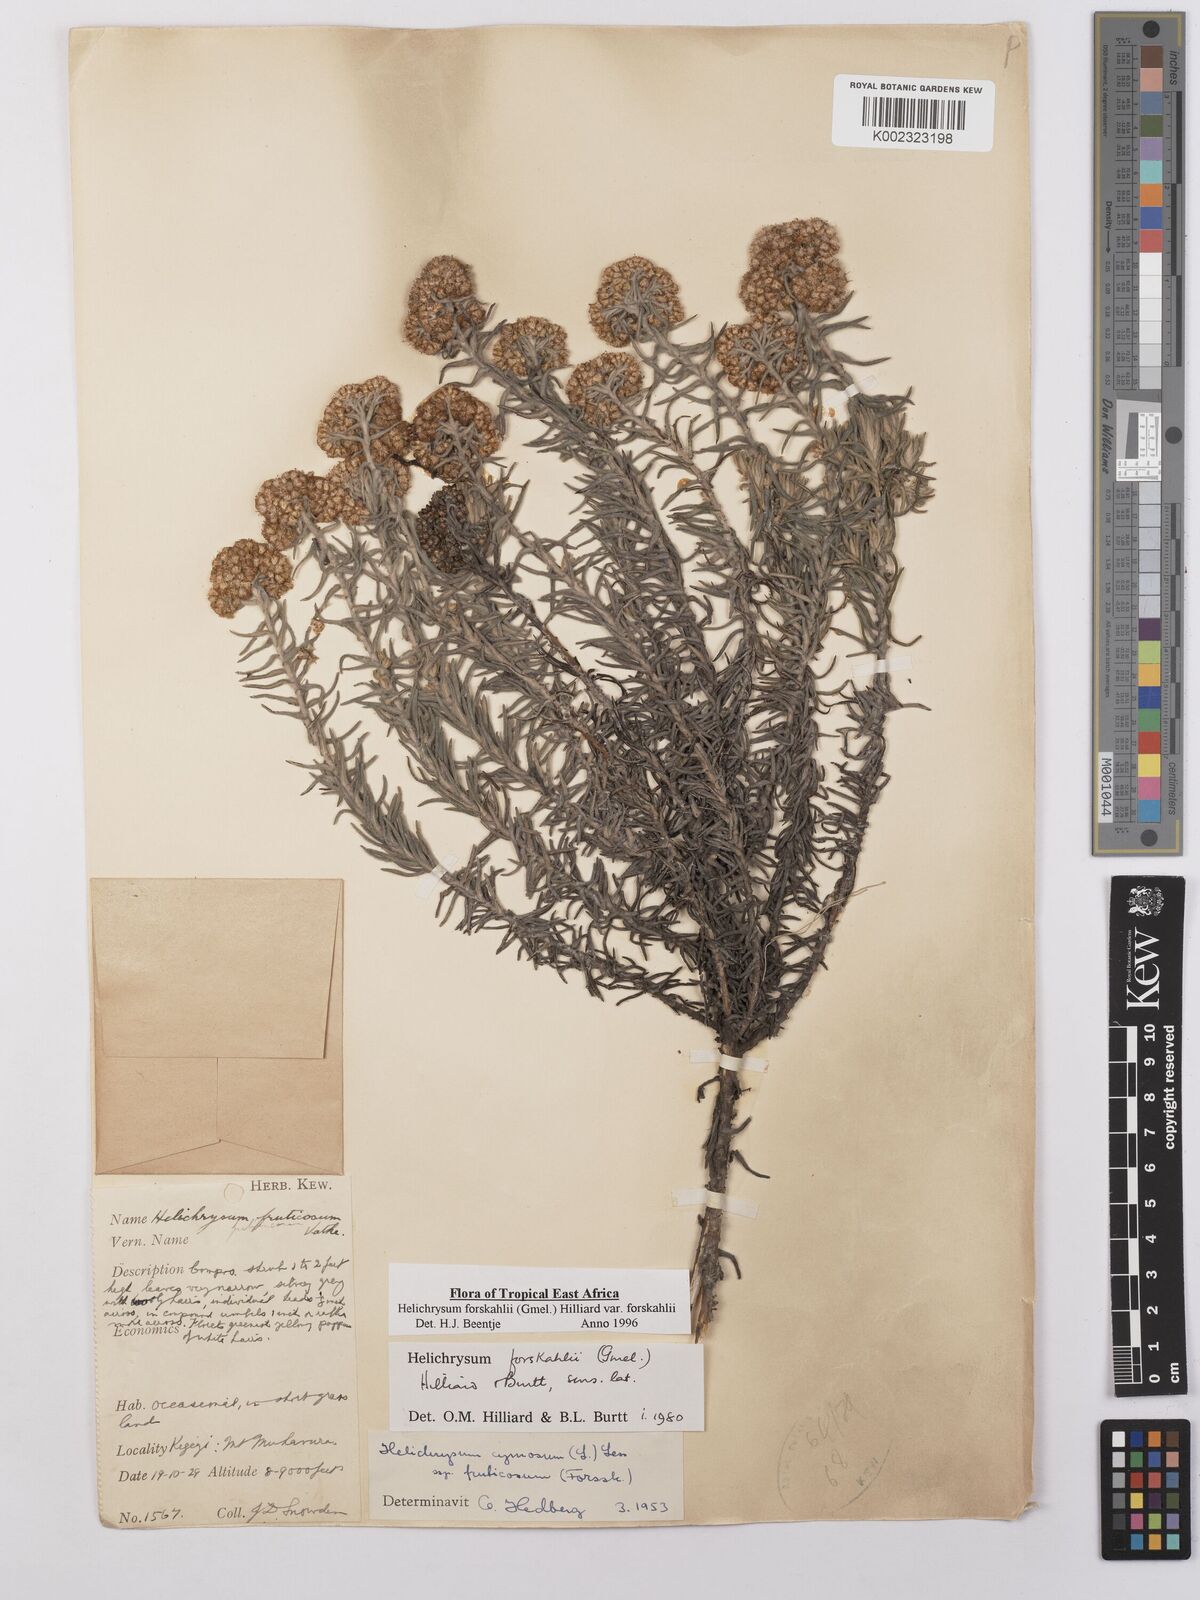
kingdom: Plantae
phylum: Tracheophyta
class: Magnoliopsida
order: Asterales
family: Asteraceae
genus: Helichrysum
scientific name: Helichrysum forskahlii
